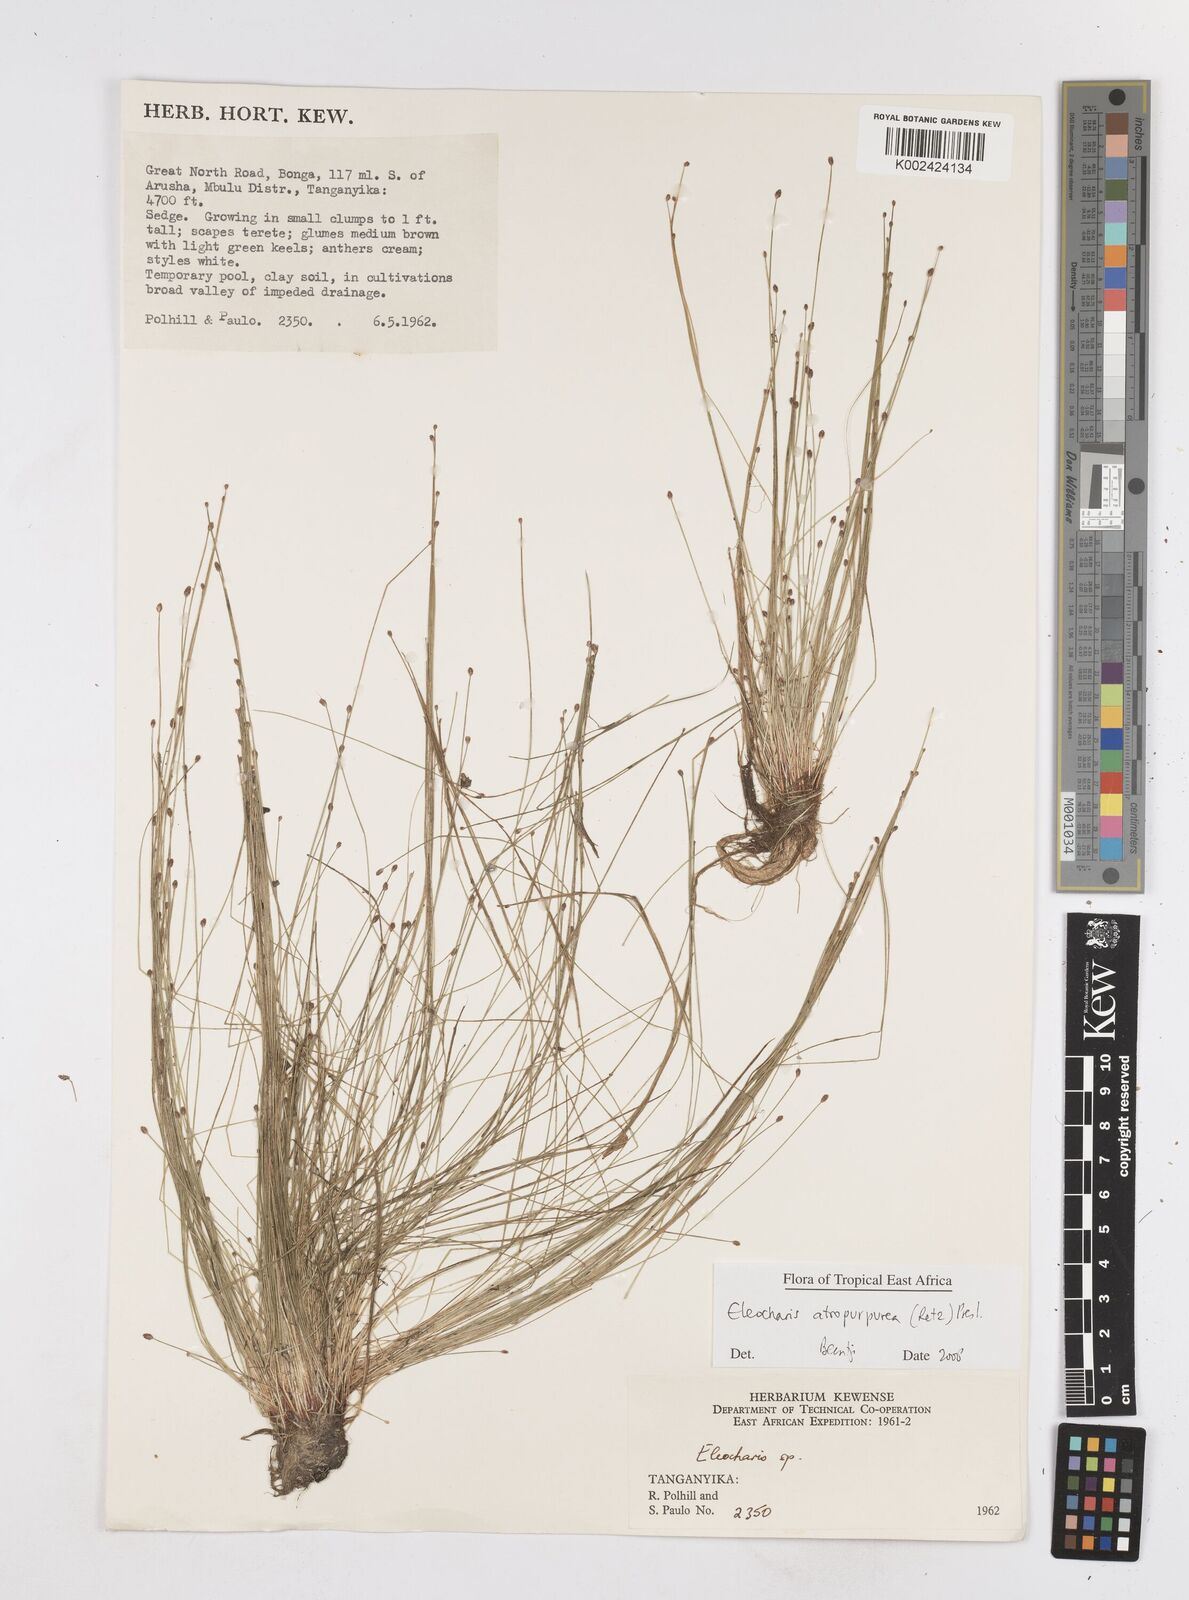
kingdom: Plantae
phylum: Tracheophyta
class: Liliopsida
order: Poales
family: Cyperaceae
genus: Eleocharis
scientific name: Eleocharis atropurpurea
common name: Purple spikerush
